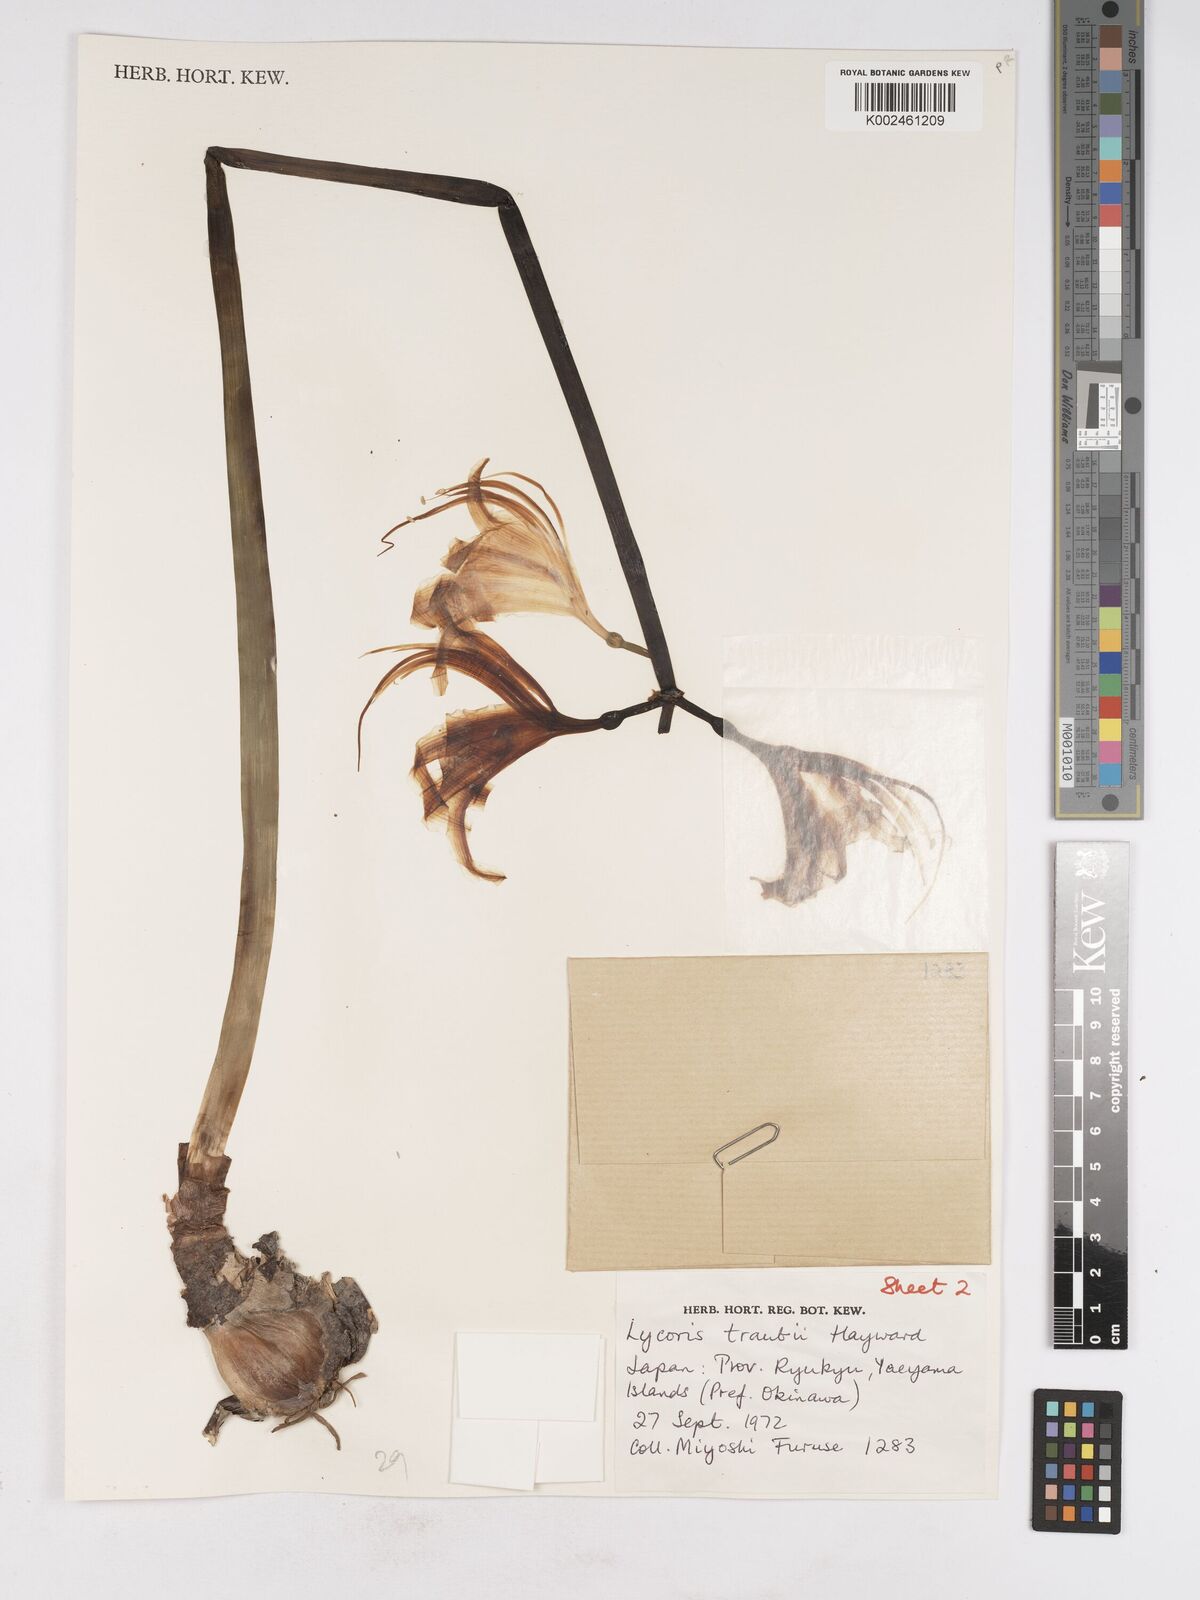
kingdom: Plantae
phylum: Tracheophyta
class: Liliopsida
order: Asparagales
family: Amaryllidaceae
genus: Lycoris
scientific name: Lycoris traubii
